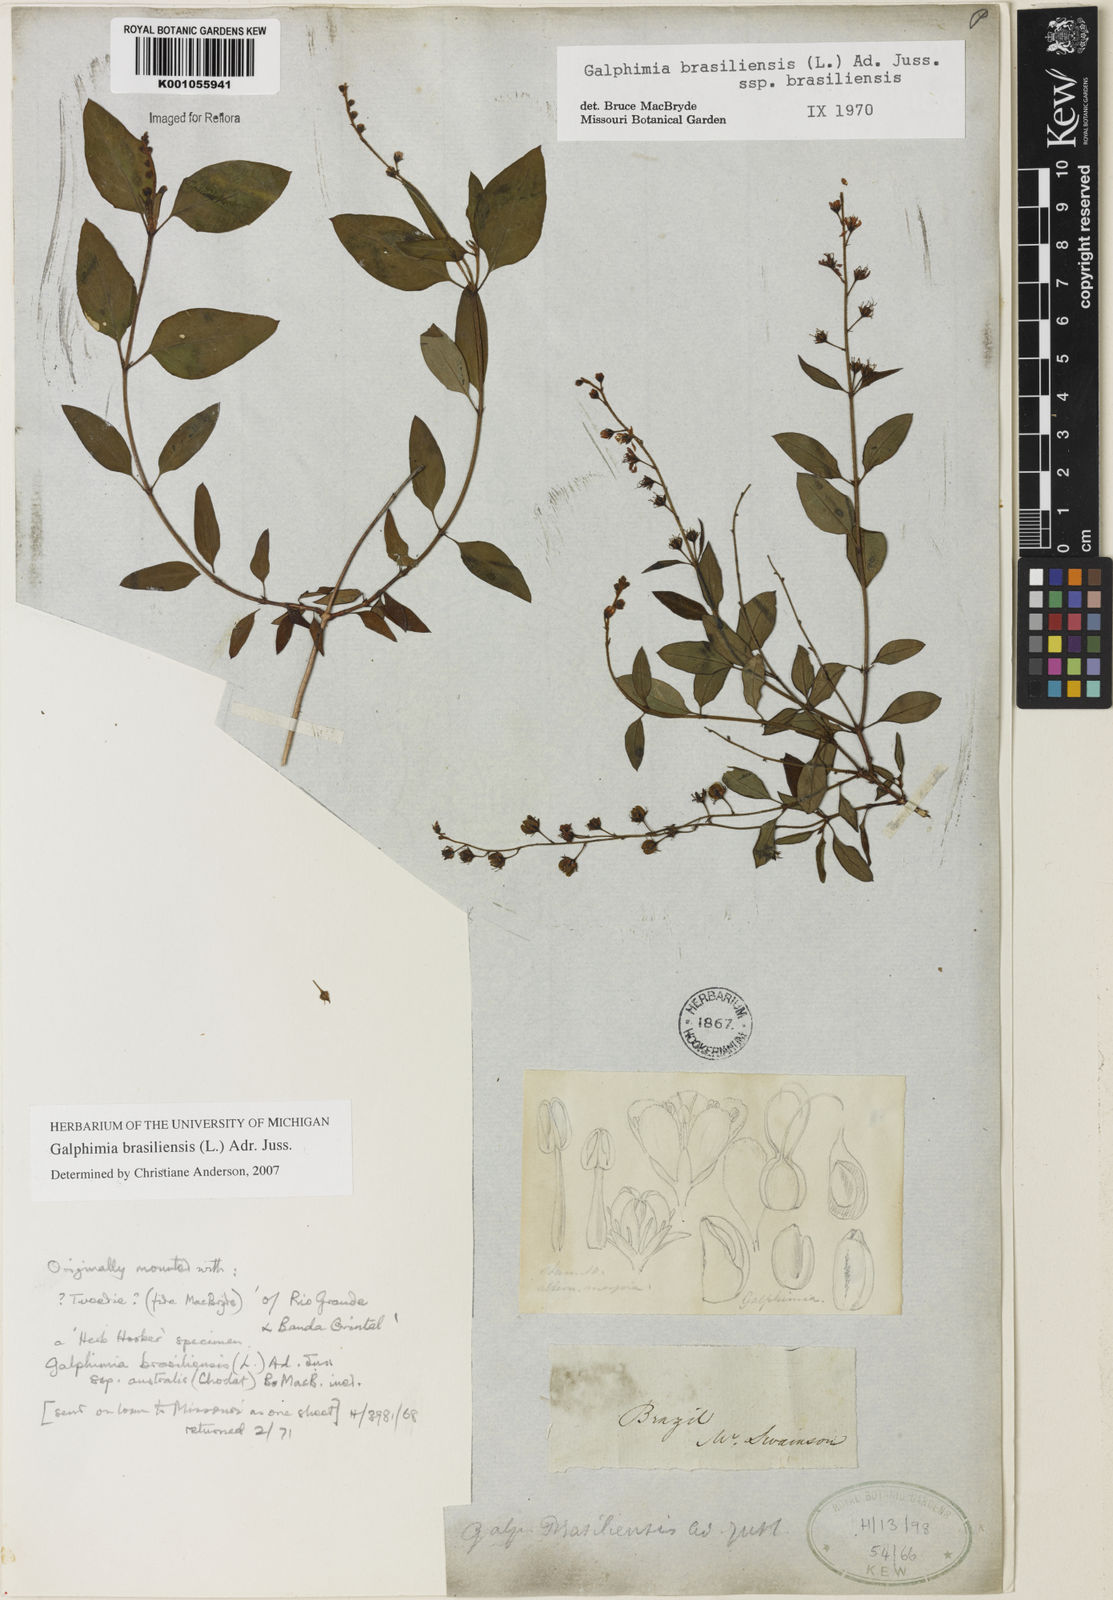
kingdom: Plantae
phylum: Tracheophyta
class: Magnoliopsida
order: Malpighiales
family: Malpighiaceae
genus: Galphimia
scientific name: Galphimia brasiliensis
